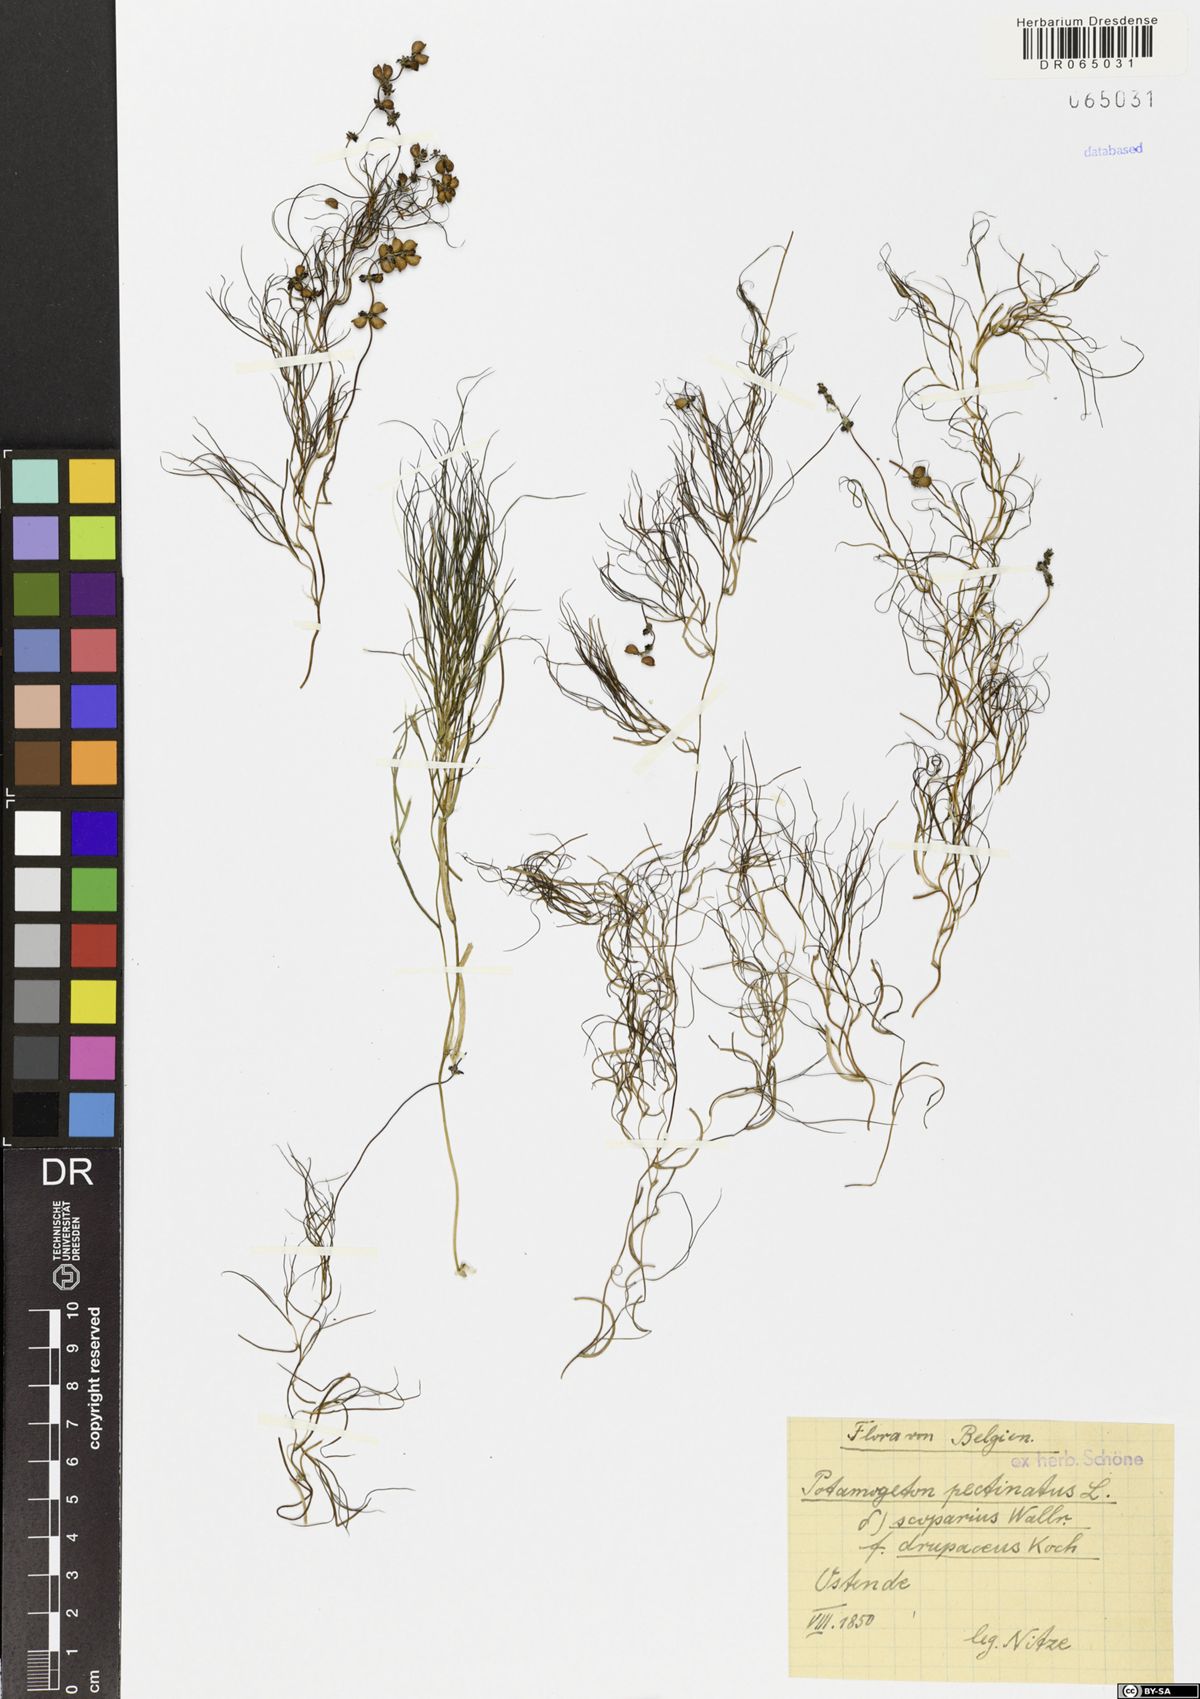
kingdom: Plantae
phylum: Tracheophyta
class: Liliopsida
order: Alismatales
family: Potamogetonaceae
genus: Stuckenia
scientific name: Stuckenia pectinata
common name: Sago pondweed
